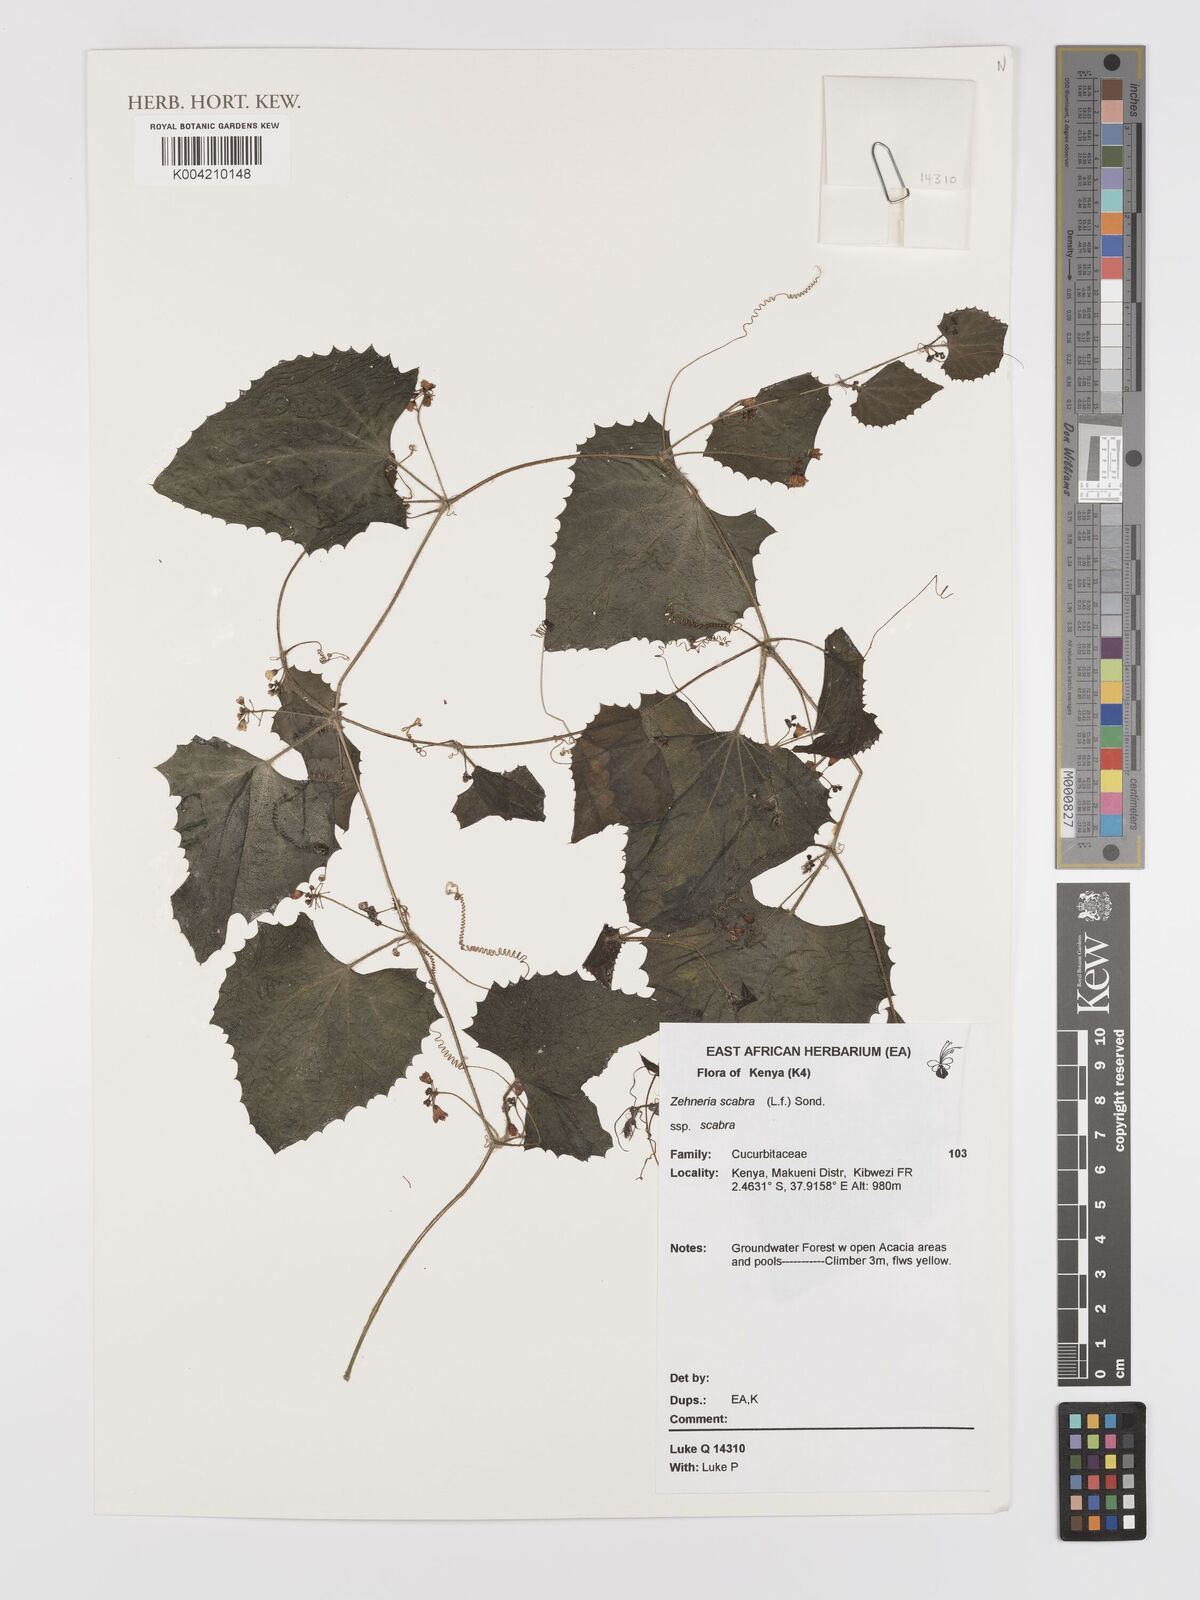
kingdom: Plantae
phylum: Tracheophyta
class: Magnoliopsida
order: Cucurbitales
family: Cucurbitaceae
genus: Zehneria
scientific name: Zehneria scabra
